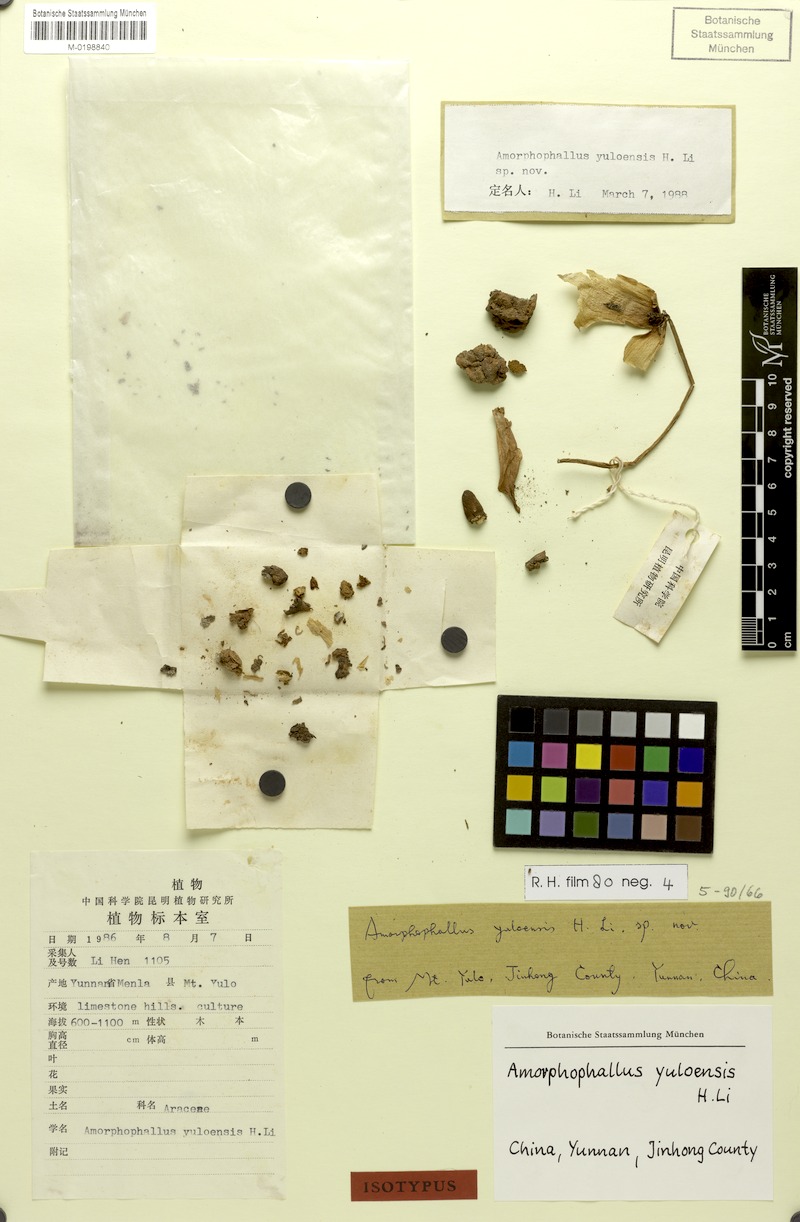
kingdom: Plantae
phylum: Tracheophyta
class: Liliopsida
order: Alismatales
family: Araceae
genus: Amorphophallus
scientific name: Amorphophallus yuloensis
